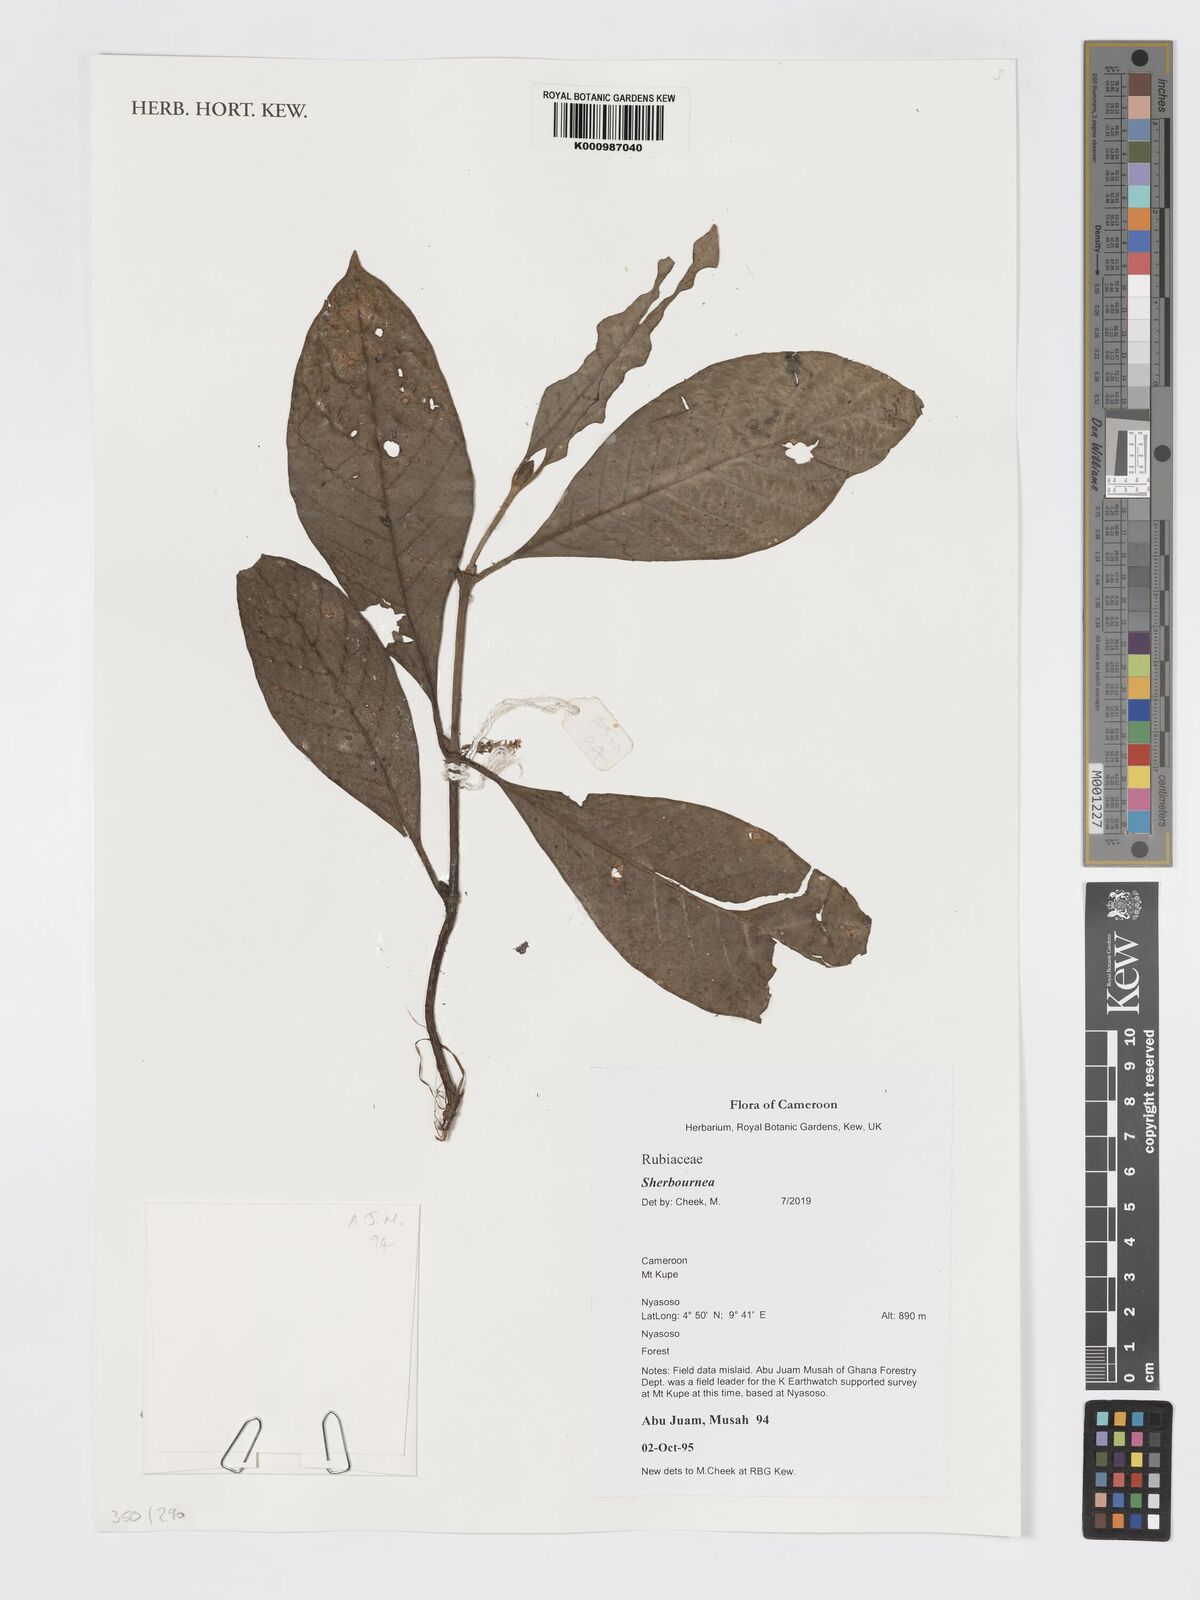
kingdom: Plantae
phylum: Tracheophyta
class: Magnoliopsida
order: Gentianales
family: Rubiaceae
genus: Sherbournia
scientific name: Sherbournia
